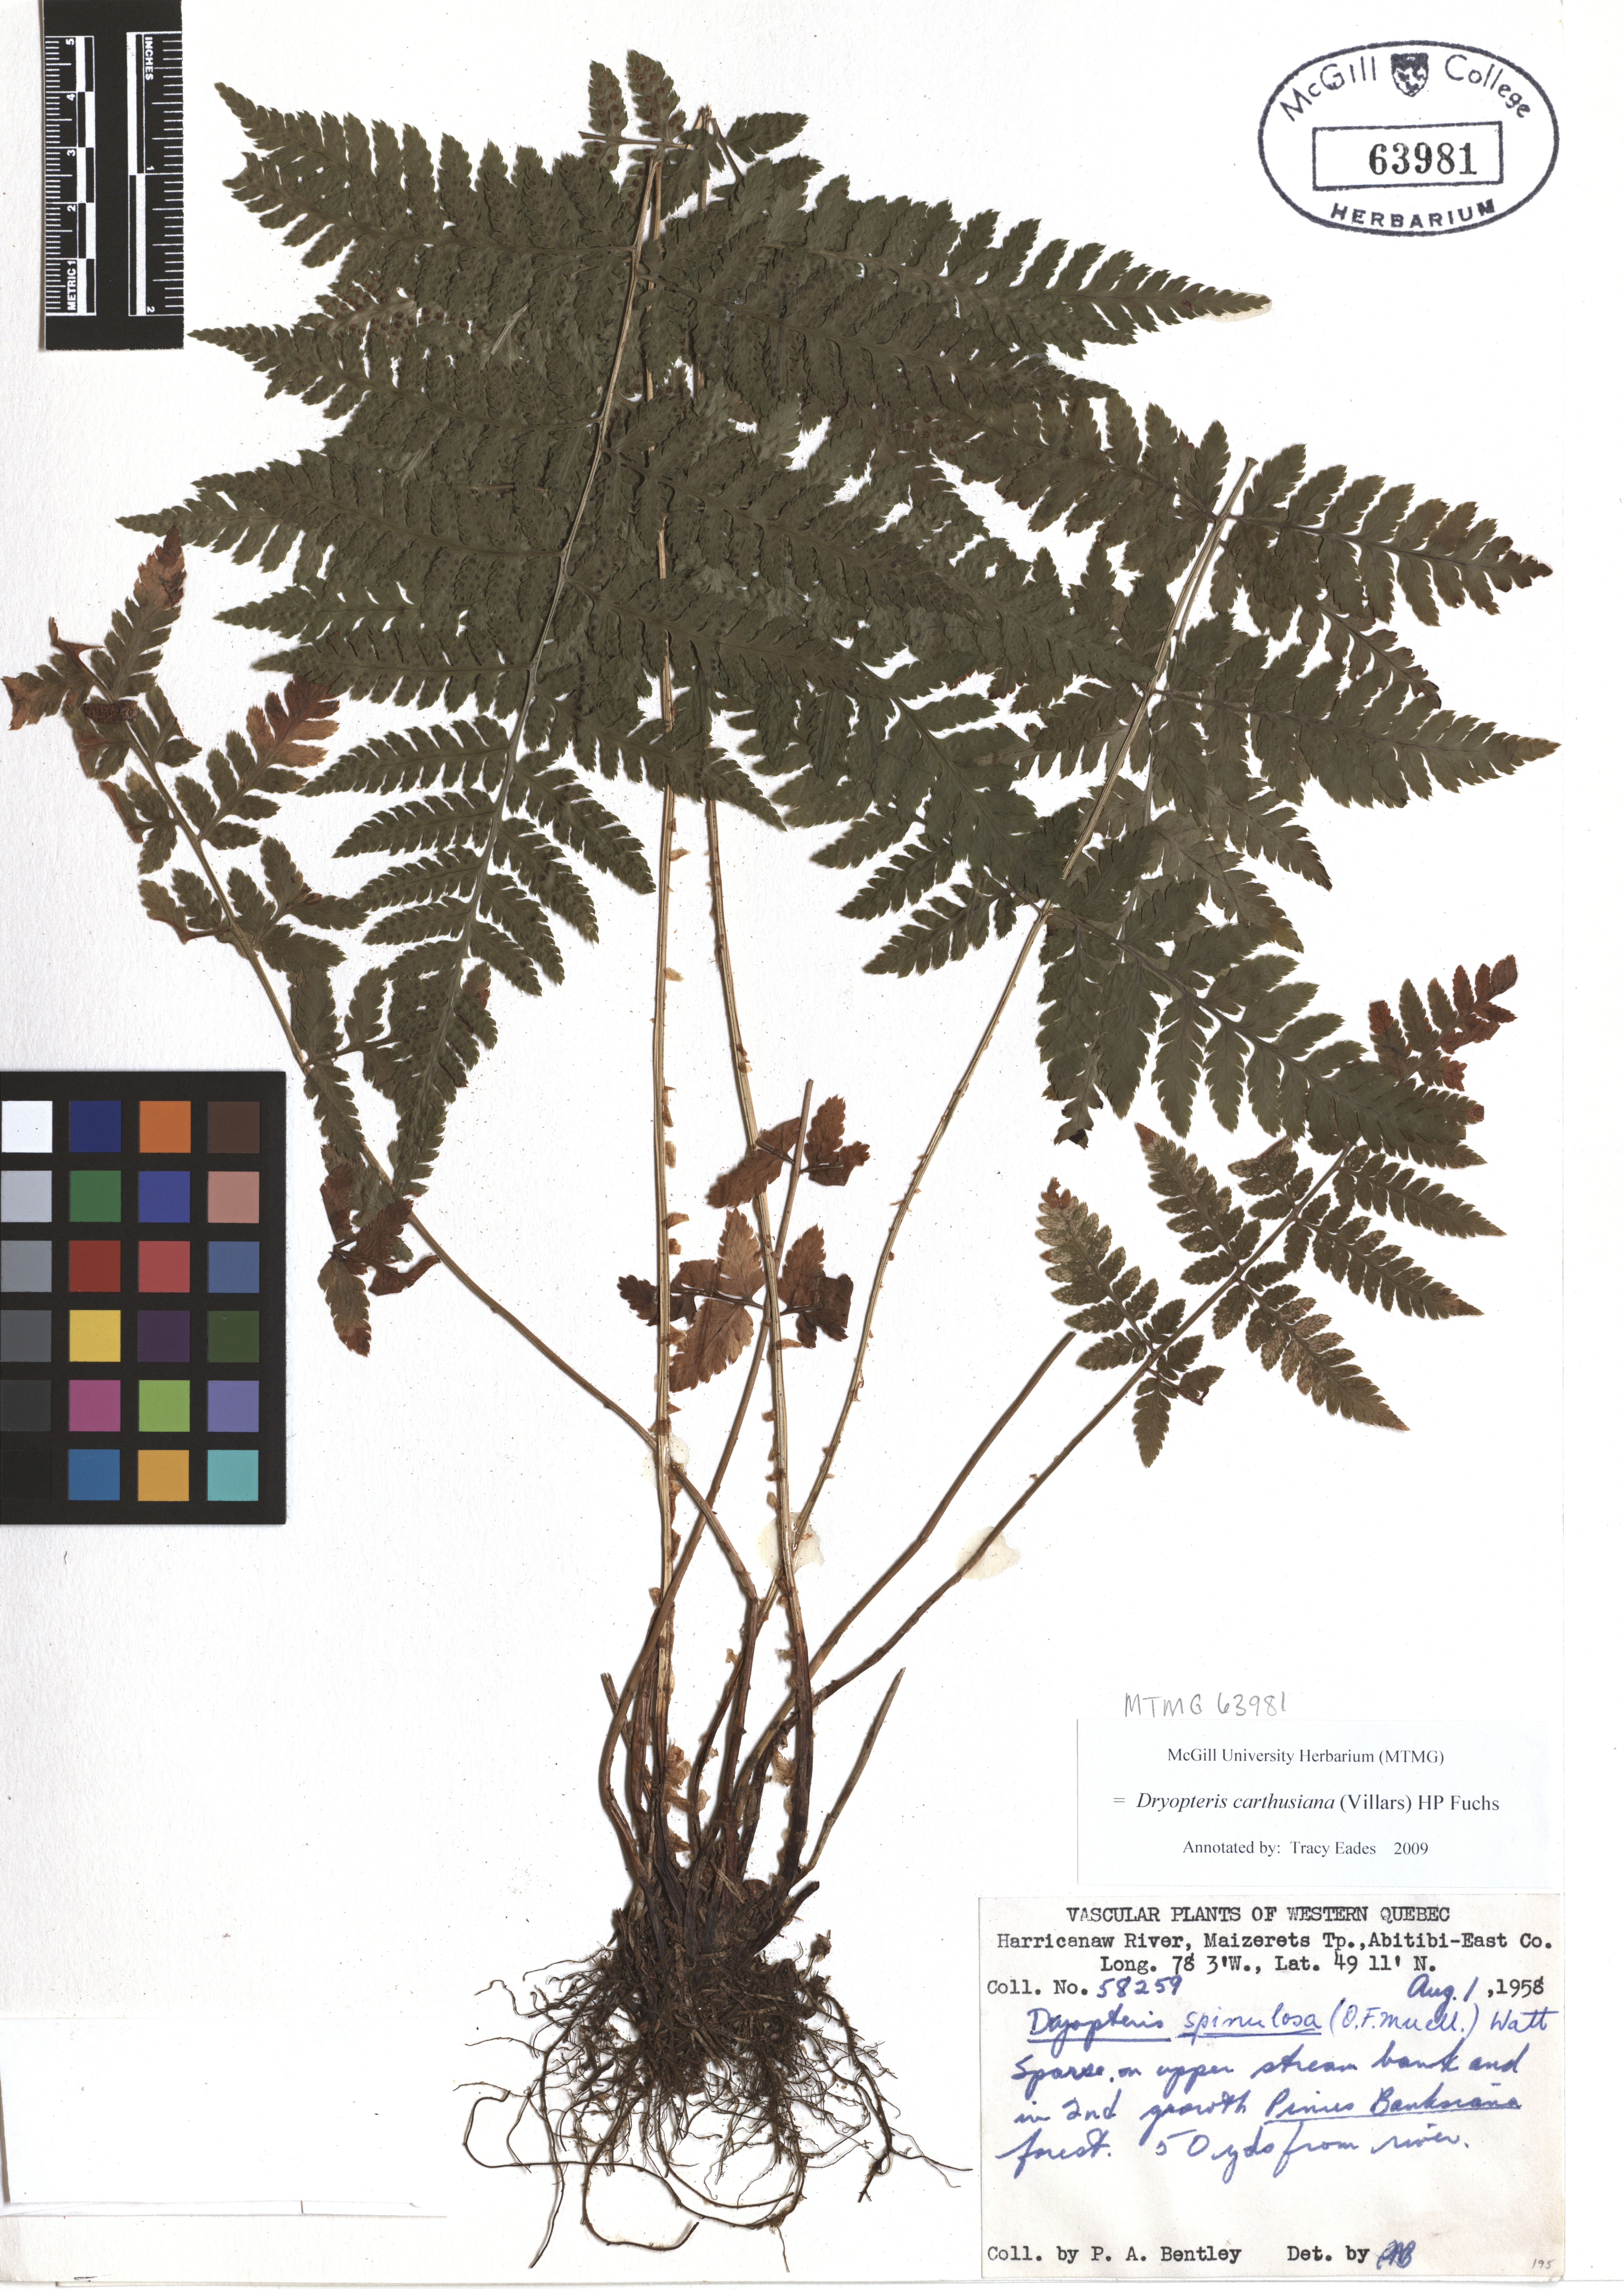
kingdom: Plantae
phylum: Tracheophyta
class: Polypodiopsida
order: Polypodiales
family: Dryopteridaceae
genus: Dryopteris
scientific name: Dryopteris carthusiana
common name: Narrow buckler-fern
